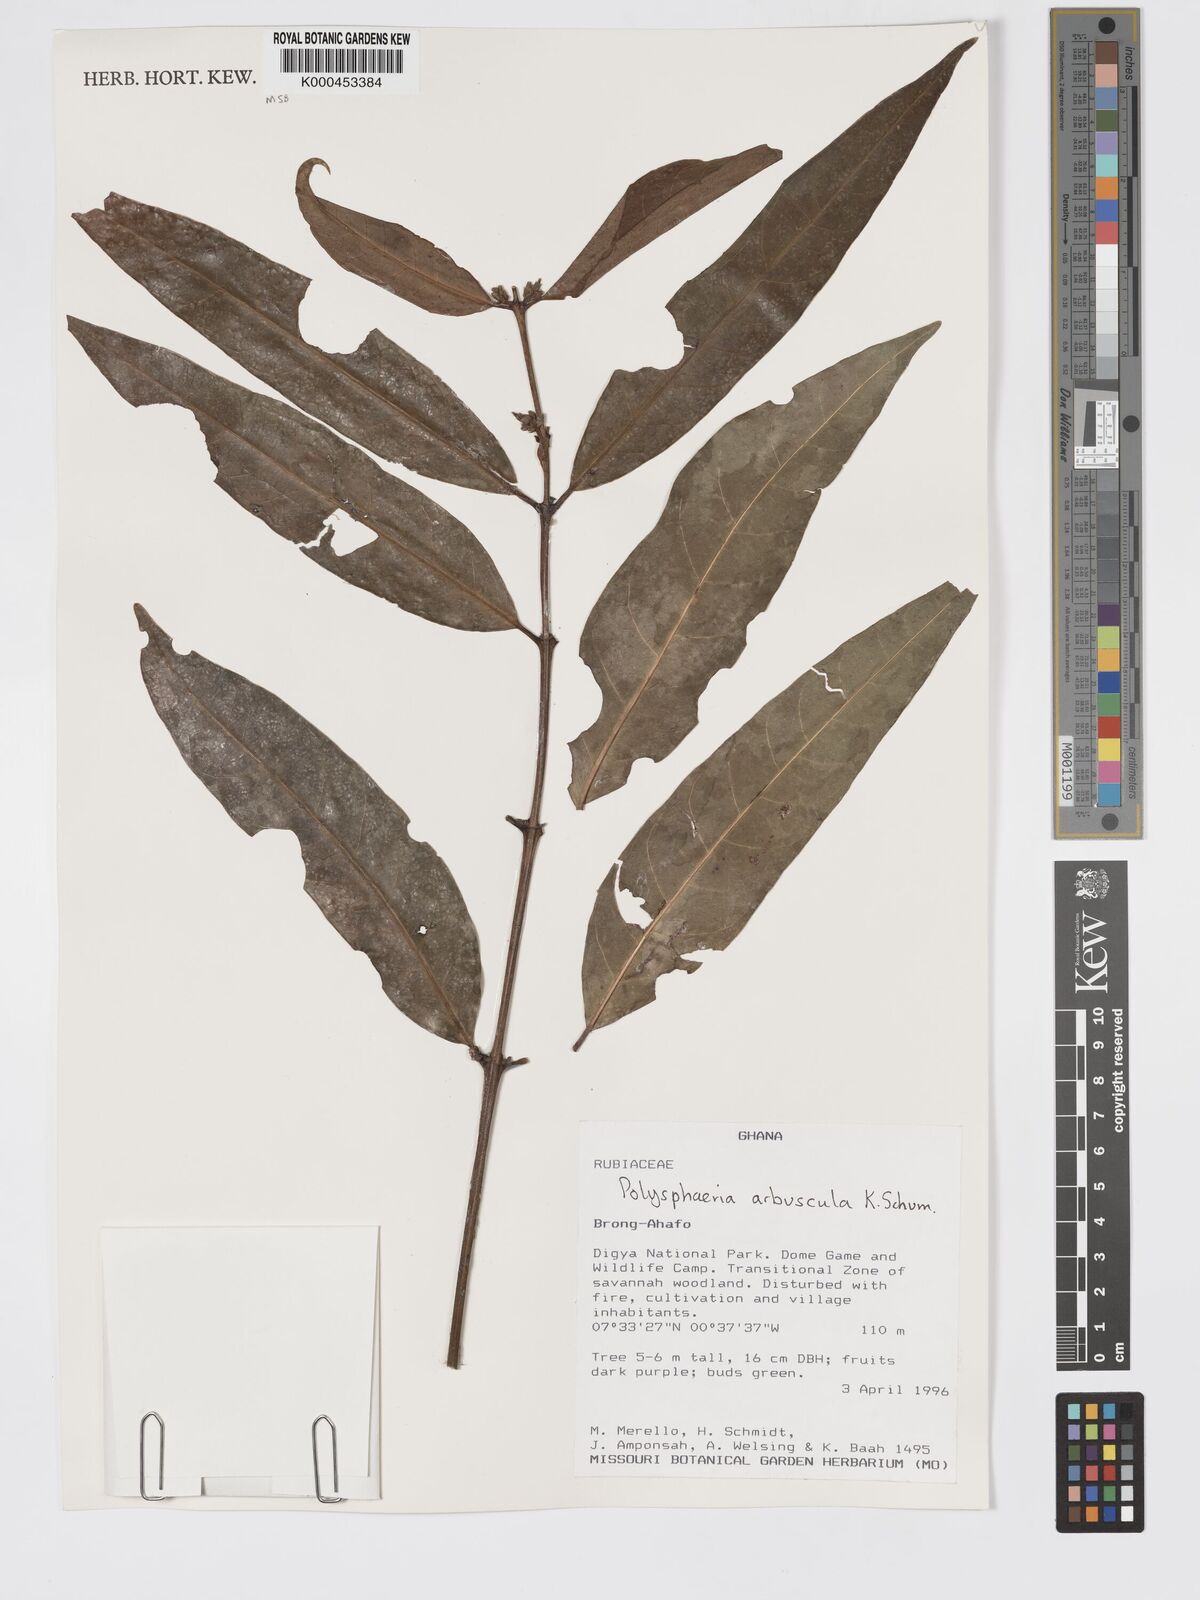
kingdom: Plantae
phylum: Tracheophyta
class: Magnoliopsida
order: Gentianales
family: Rubiaceae
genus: Polysphaeria
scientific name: Polysphaeria arbuscula
